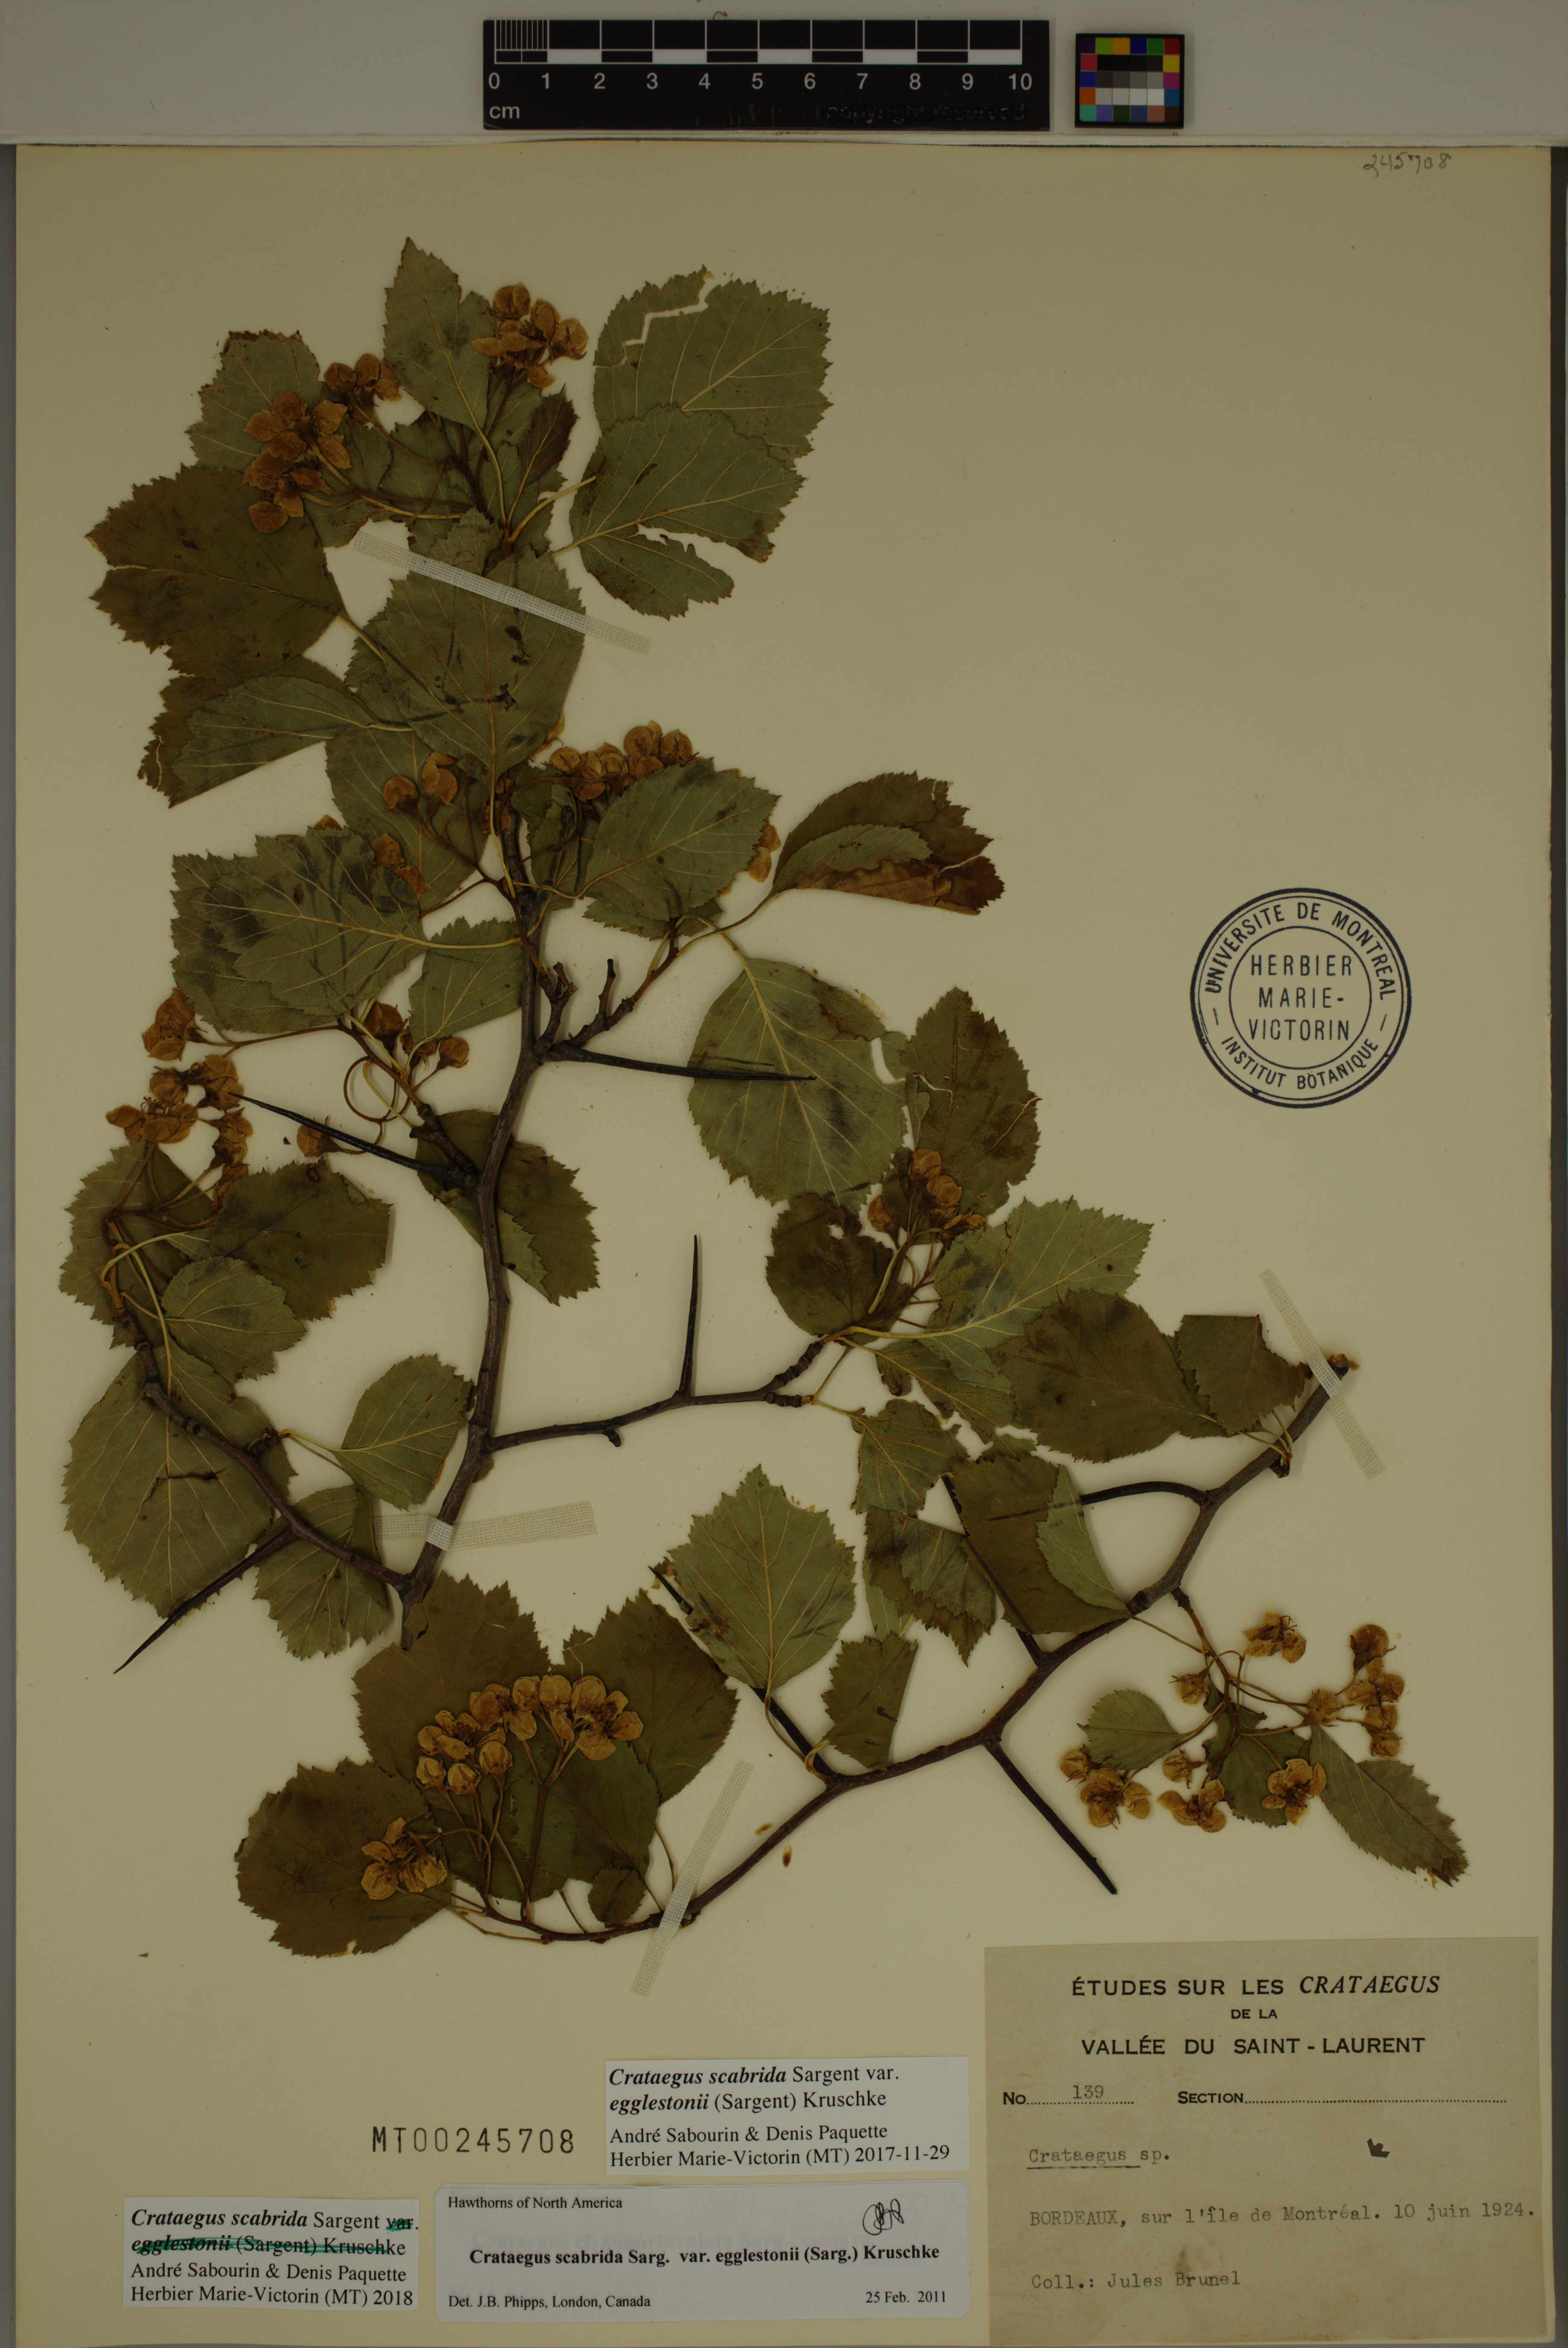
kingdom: Plantae
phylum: Tracheophyta
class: Magnoliopsida
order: Rosales
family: Rosaceae
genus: Crataegus
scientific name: Crataegus scabrida
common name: Rough hawthorn
